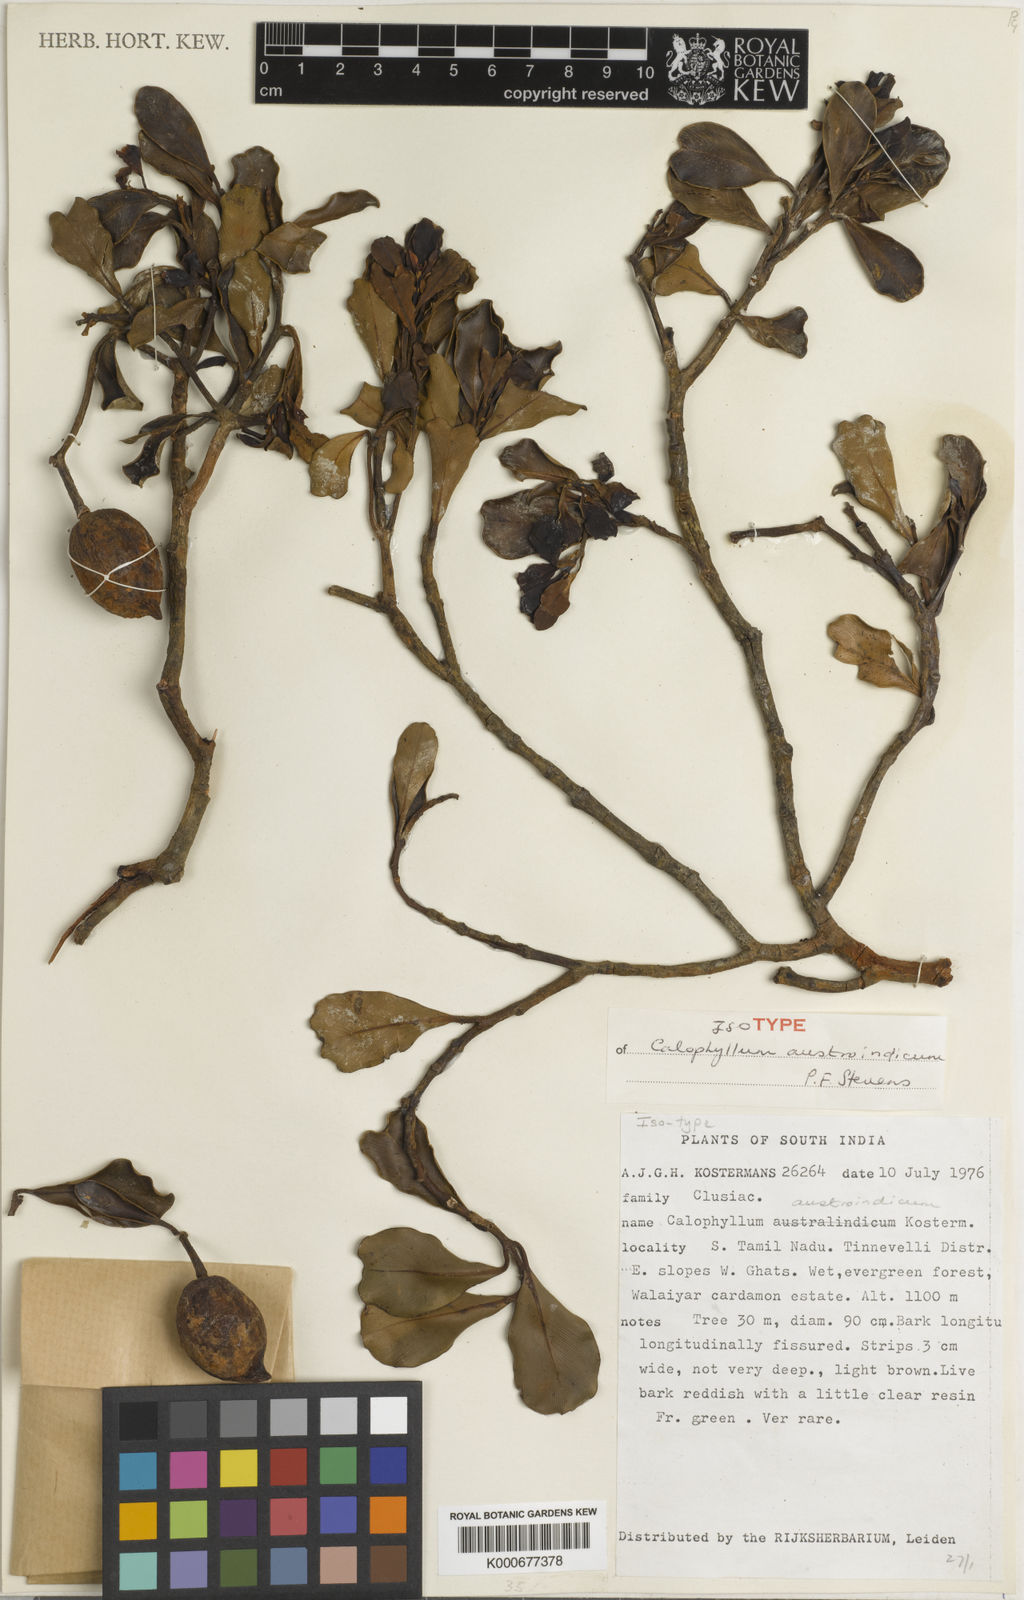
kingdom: Plantae
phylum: Tracheophyta
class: Magnoliopsida
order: Malpighiales
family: Calophyllaceae
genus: Calophyllum
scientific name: Calophyllum austroindicum
